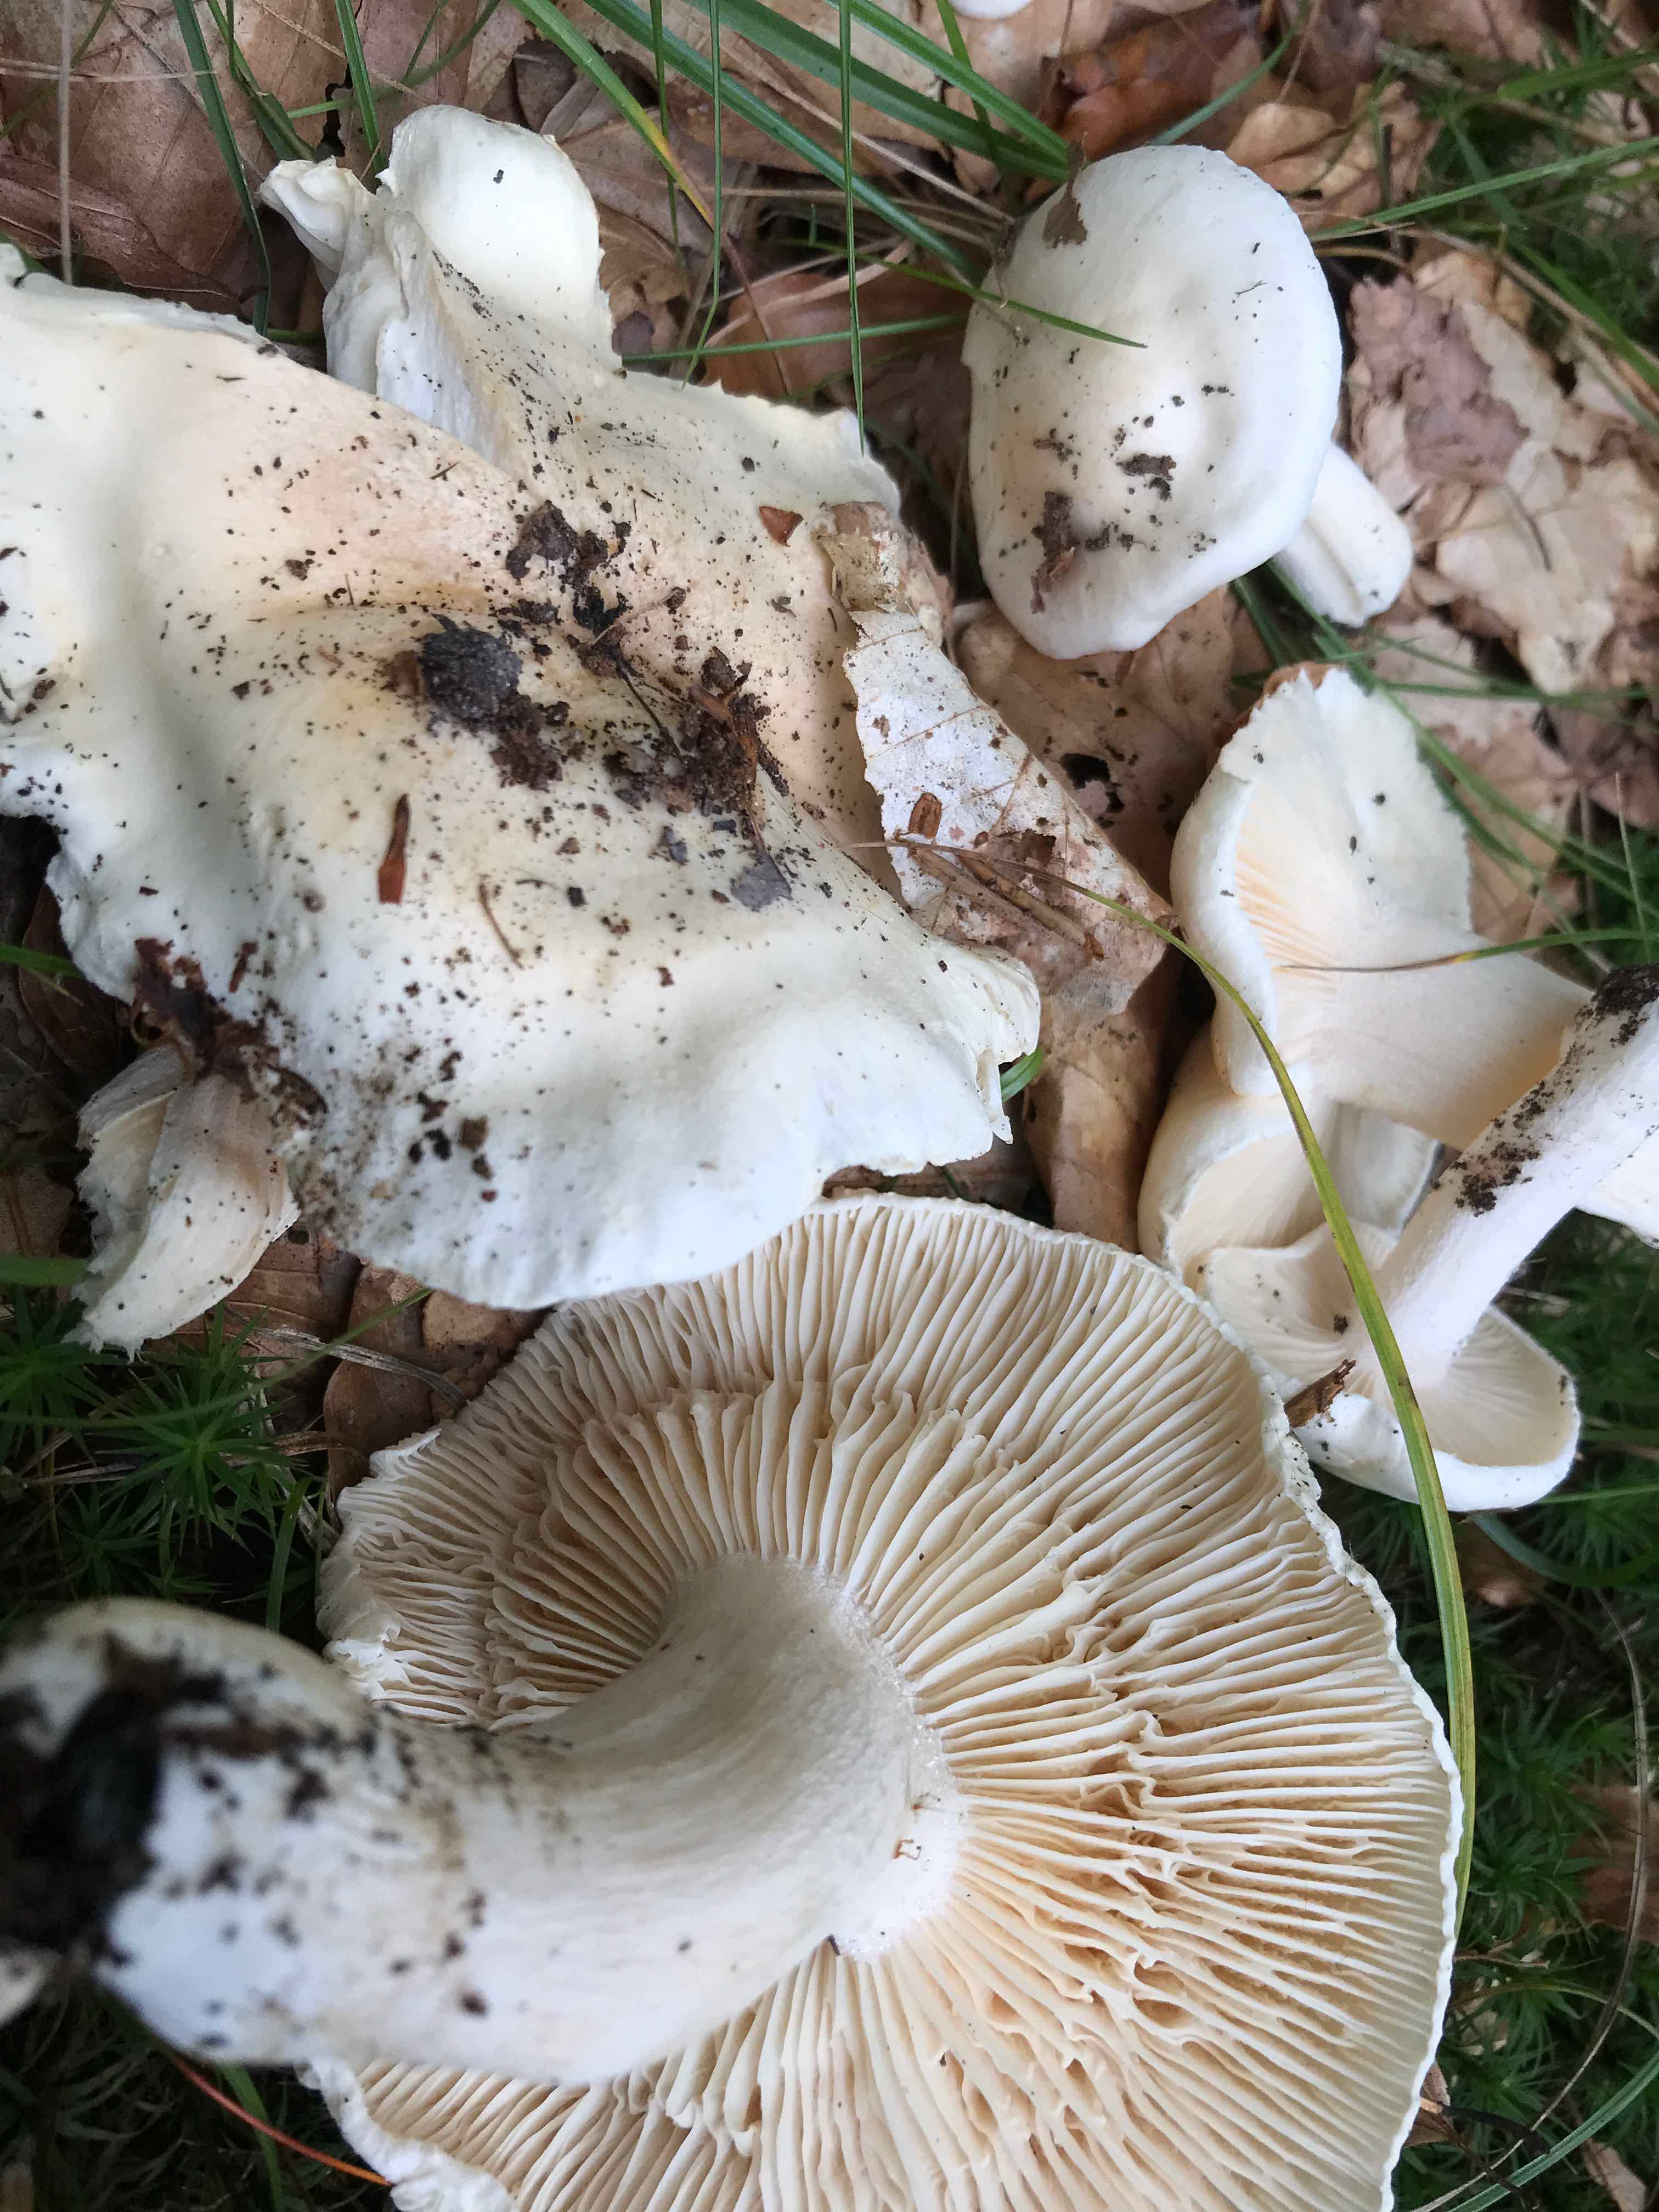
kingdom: Fungi
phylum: Basidiomycota
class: Agaricomycetes
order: Agaricales
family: Tricholomataceae
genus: Tricholoma
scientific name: Tricholoma lascivum
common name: stinkende ridderhat
